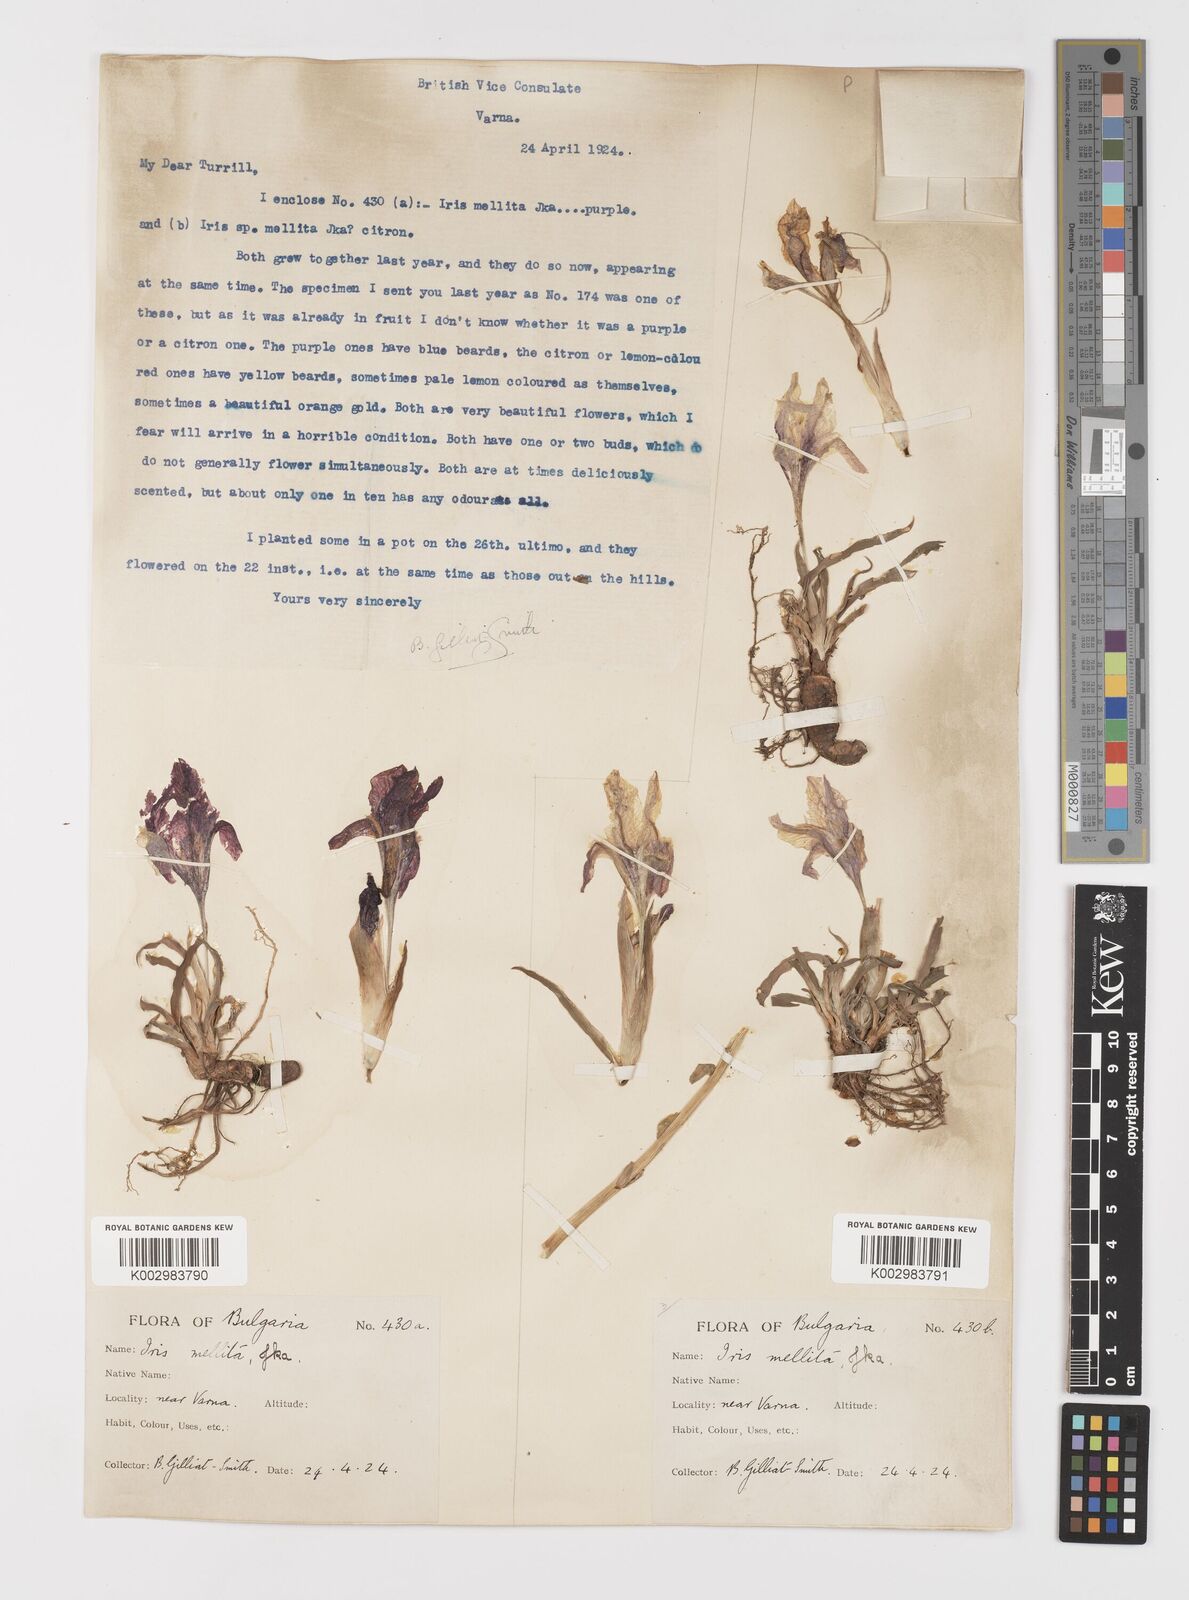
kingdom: Plantae
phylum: Tracheophyta
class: Liliopsida
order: Asparagales
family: Iridaceae
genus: Iris
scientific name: Iris suaveolens
